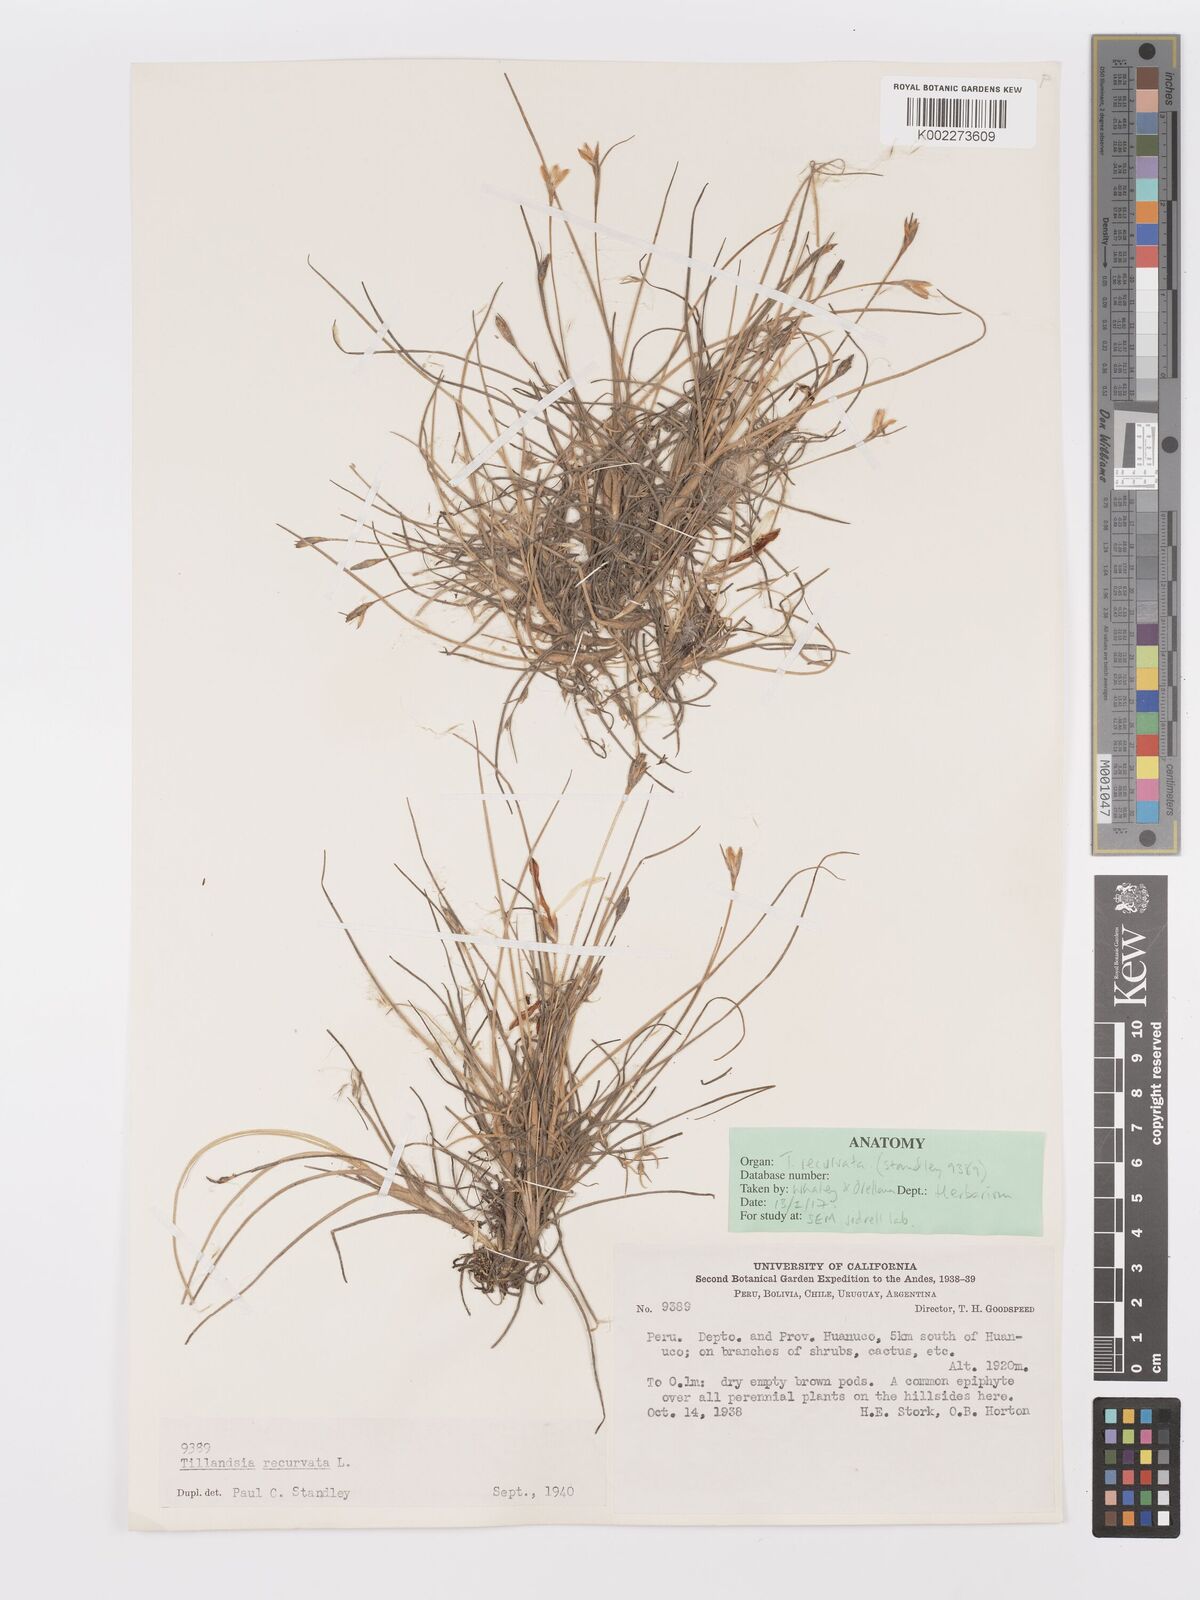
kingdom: Plantae
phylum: Tracheophyta
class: Liliopsida
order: Poales
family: Bromeliaceae
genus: Tillandsia
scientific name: Tillandsia recurvata
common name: Small ballmoss
